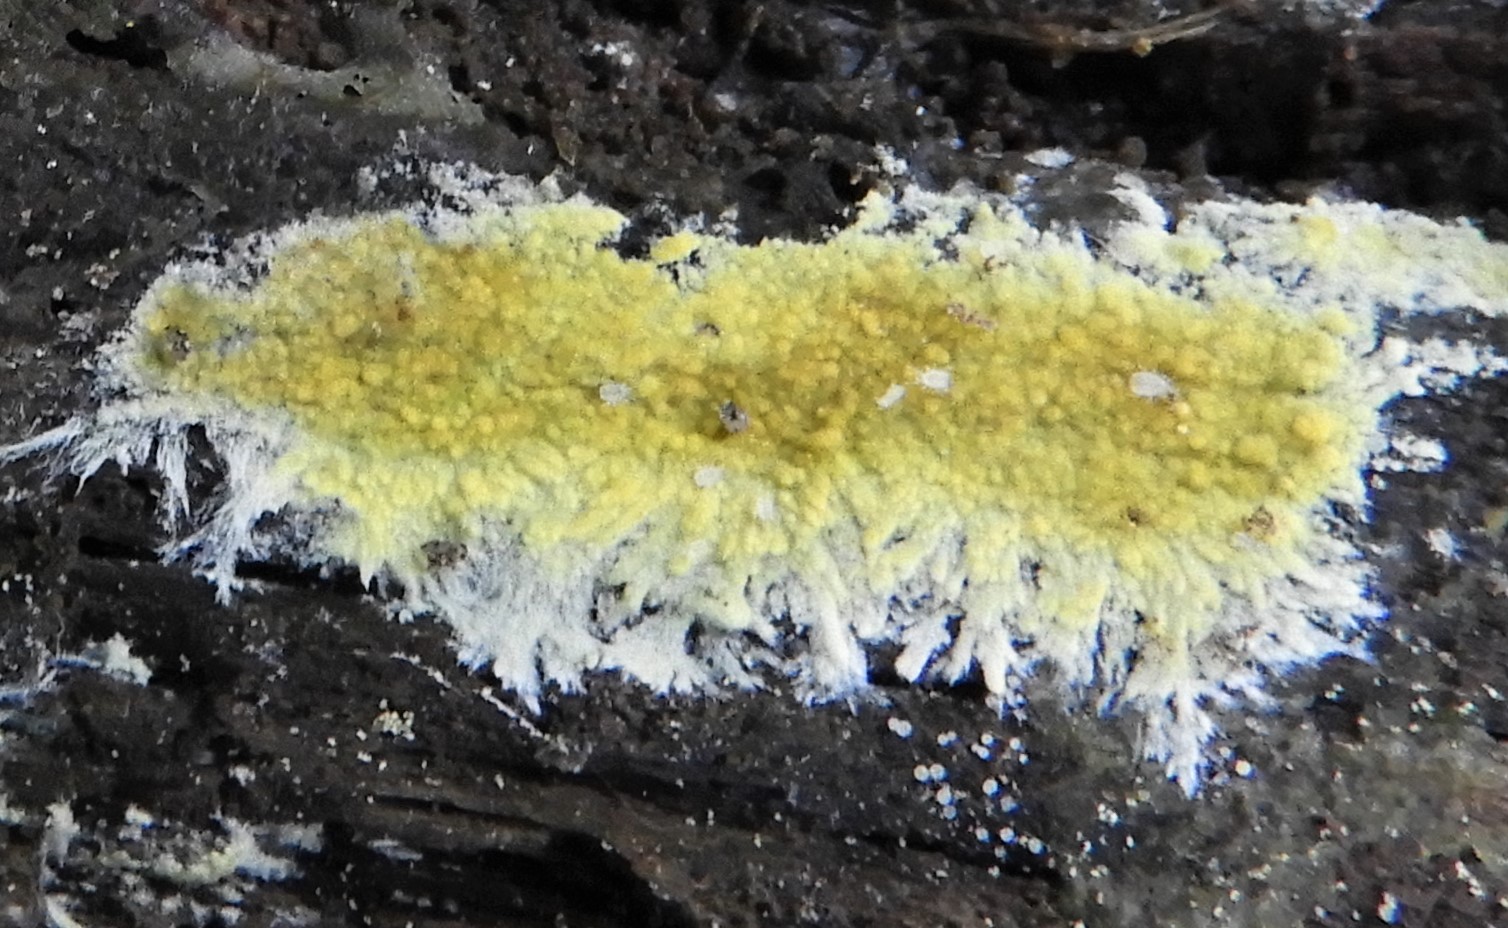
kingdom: Fungi
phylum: Basidiomycota
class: Agaricomycetes
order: Polyporales
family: Meruliaceae
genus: Phlebiodontia
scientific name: Phlebiodontia subochracea
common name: svovl-åresvamp
